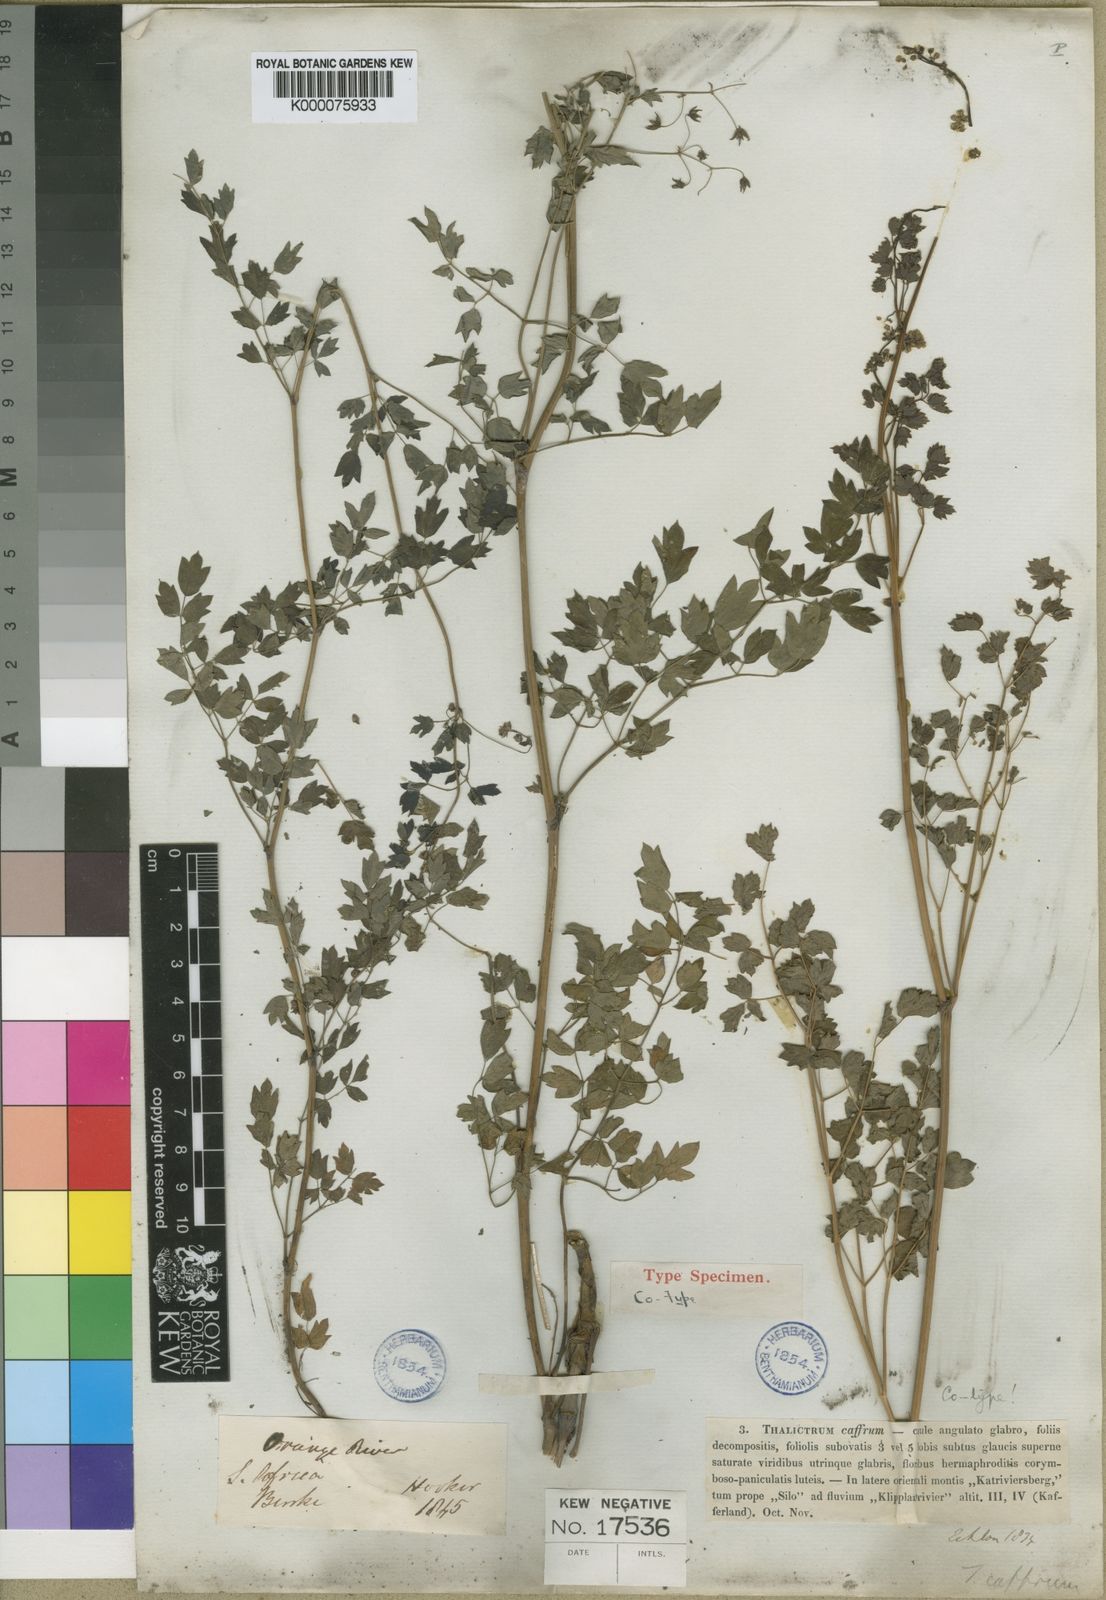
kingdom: Plantae
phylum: Tracheophyta
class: Magnoliopsida
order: Ranunculales
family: Ranunculaceae
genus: Thalictrum
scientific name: Thalictrum
